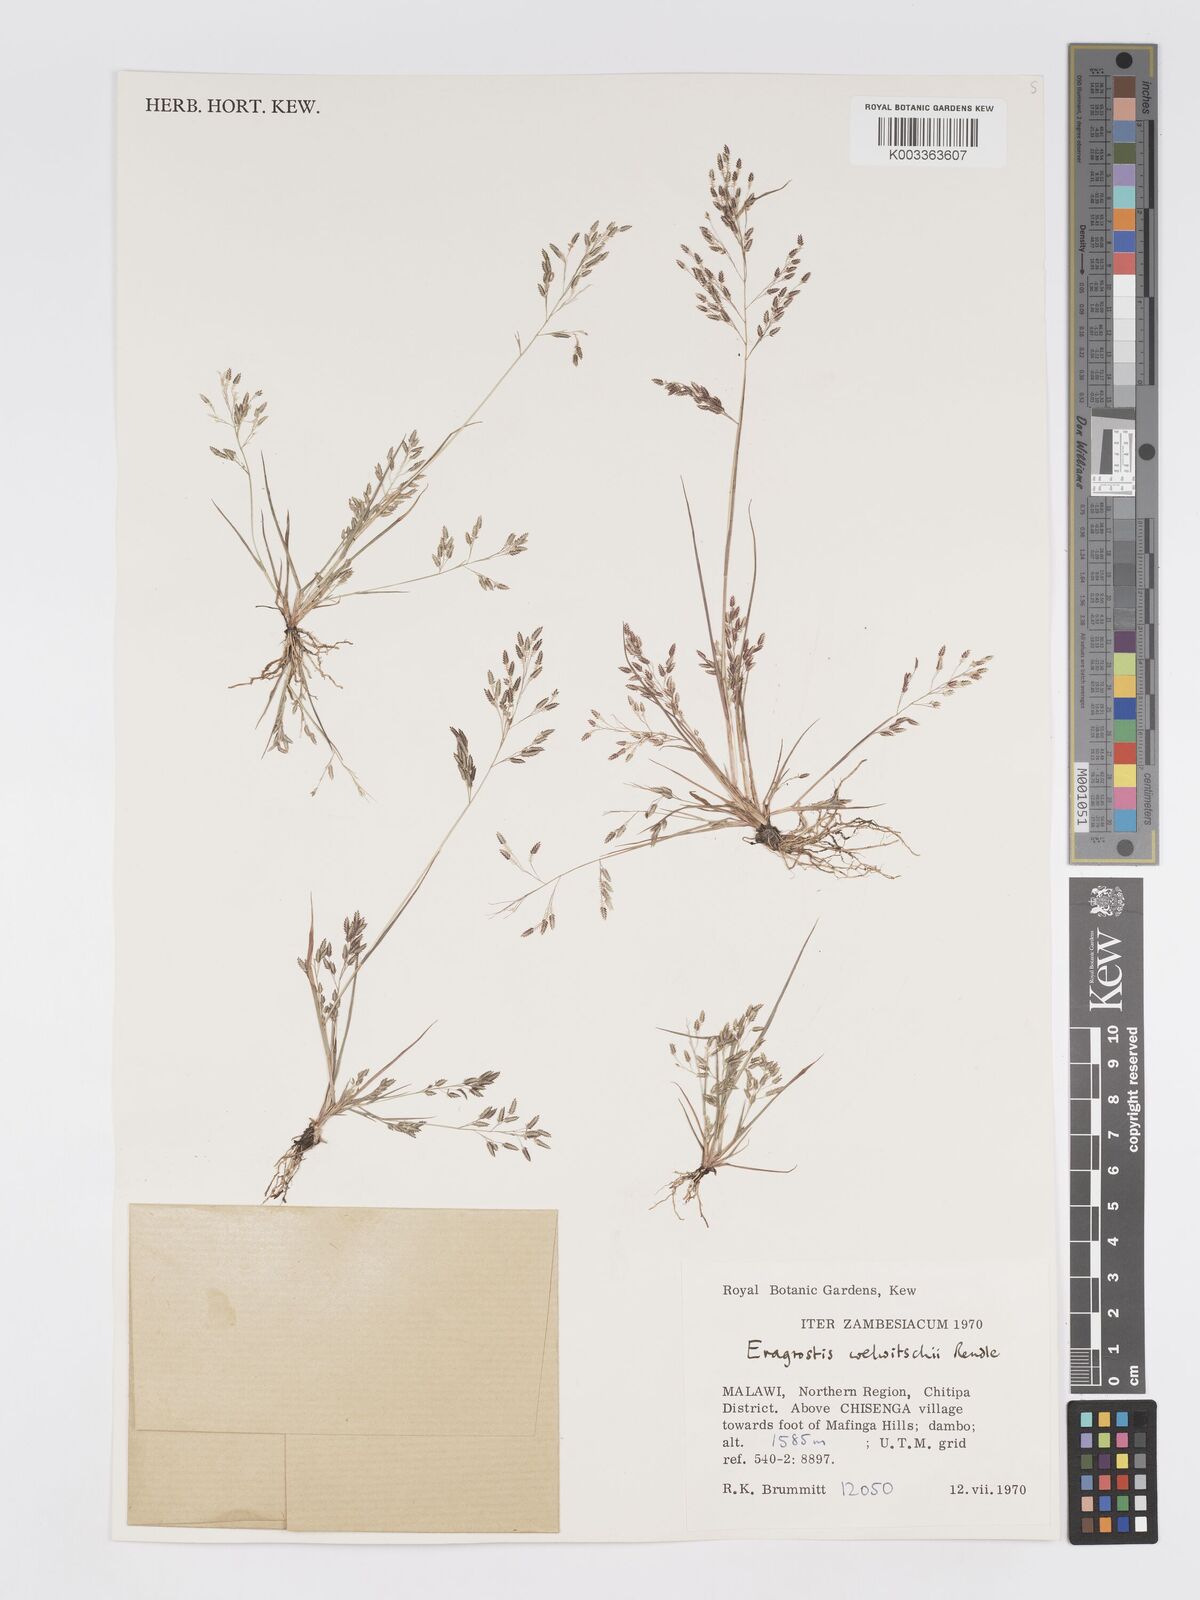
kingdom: Plantae
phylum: Tracheophyta
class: Liliopsida
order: Poales
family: Poaceae
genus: Eragrostis
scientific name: Eragrostis welwitschii
